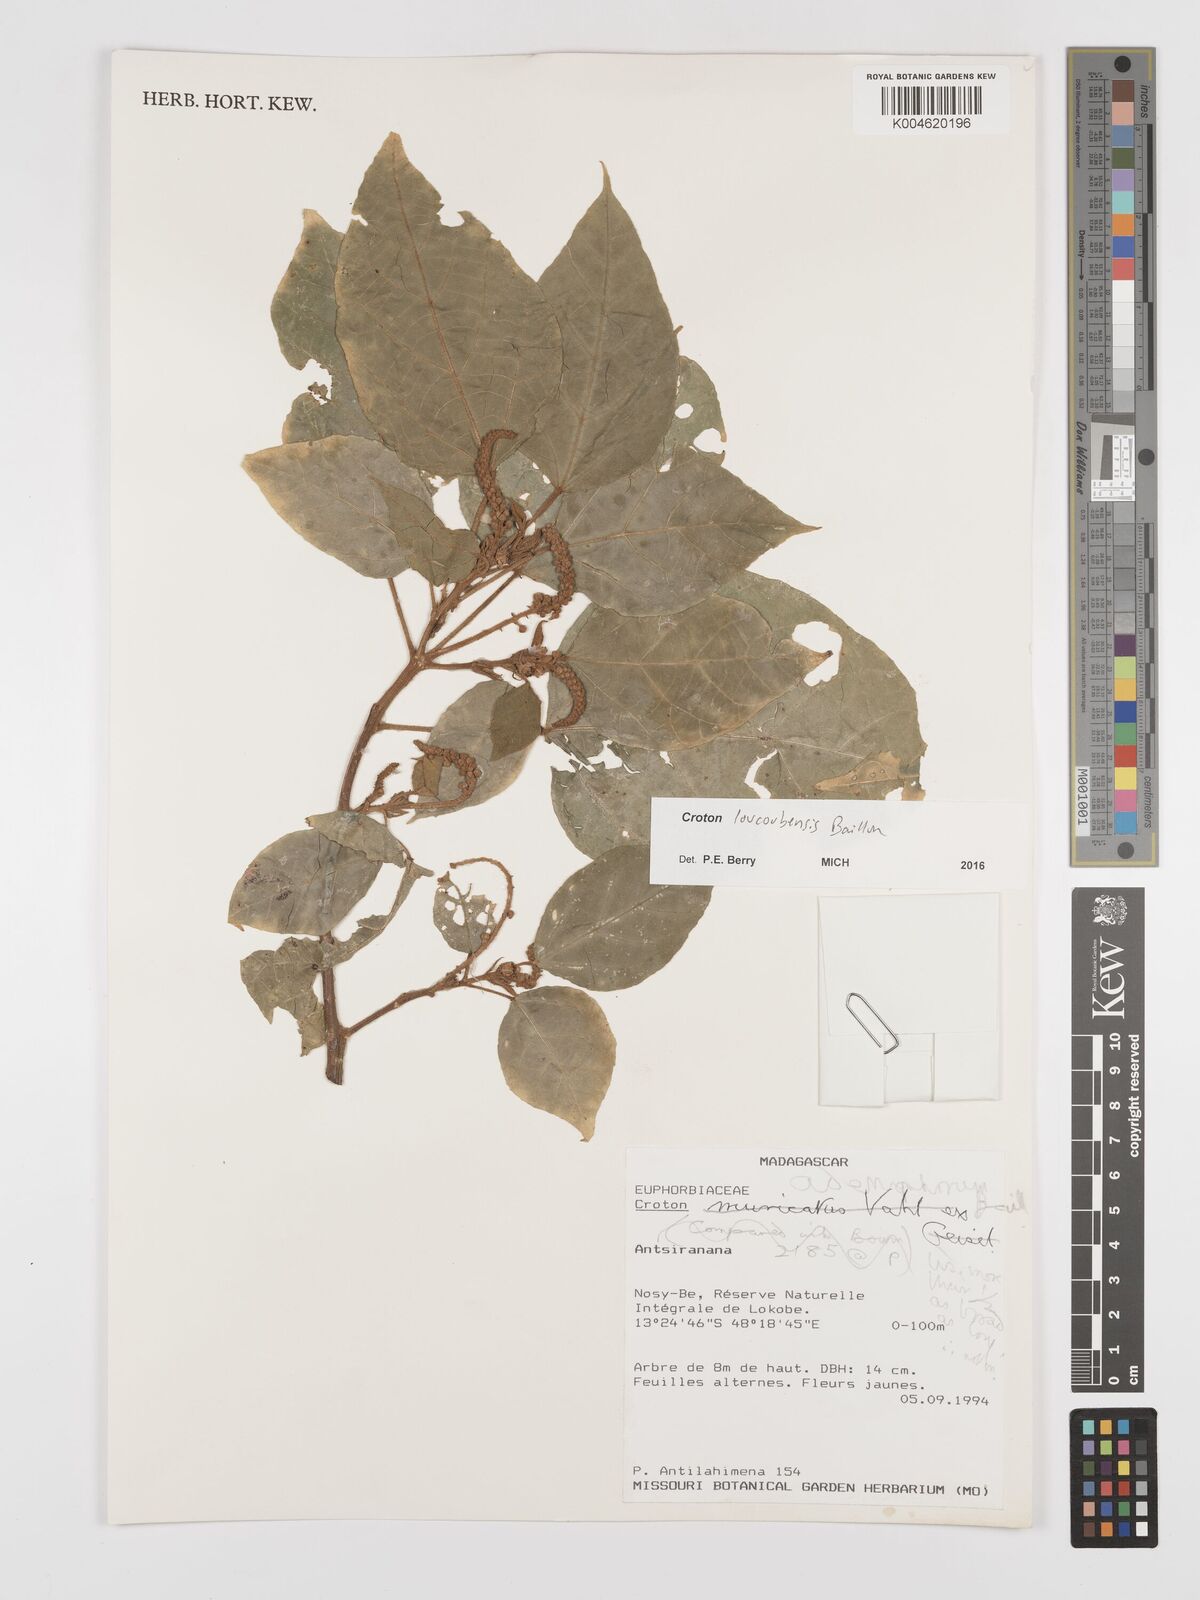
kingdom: Plantae
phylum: Tracheophyta
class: Magnoliopsida
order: Malpighiales
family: Euphorbiaceae
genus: Croton
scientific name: Croton loucoubensis
